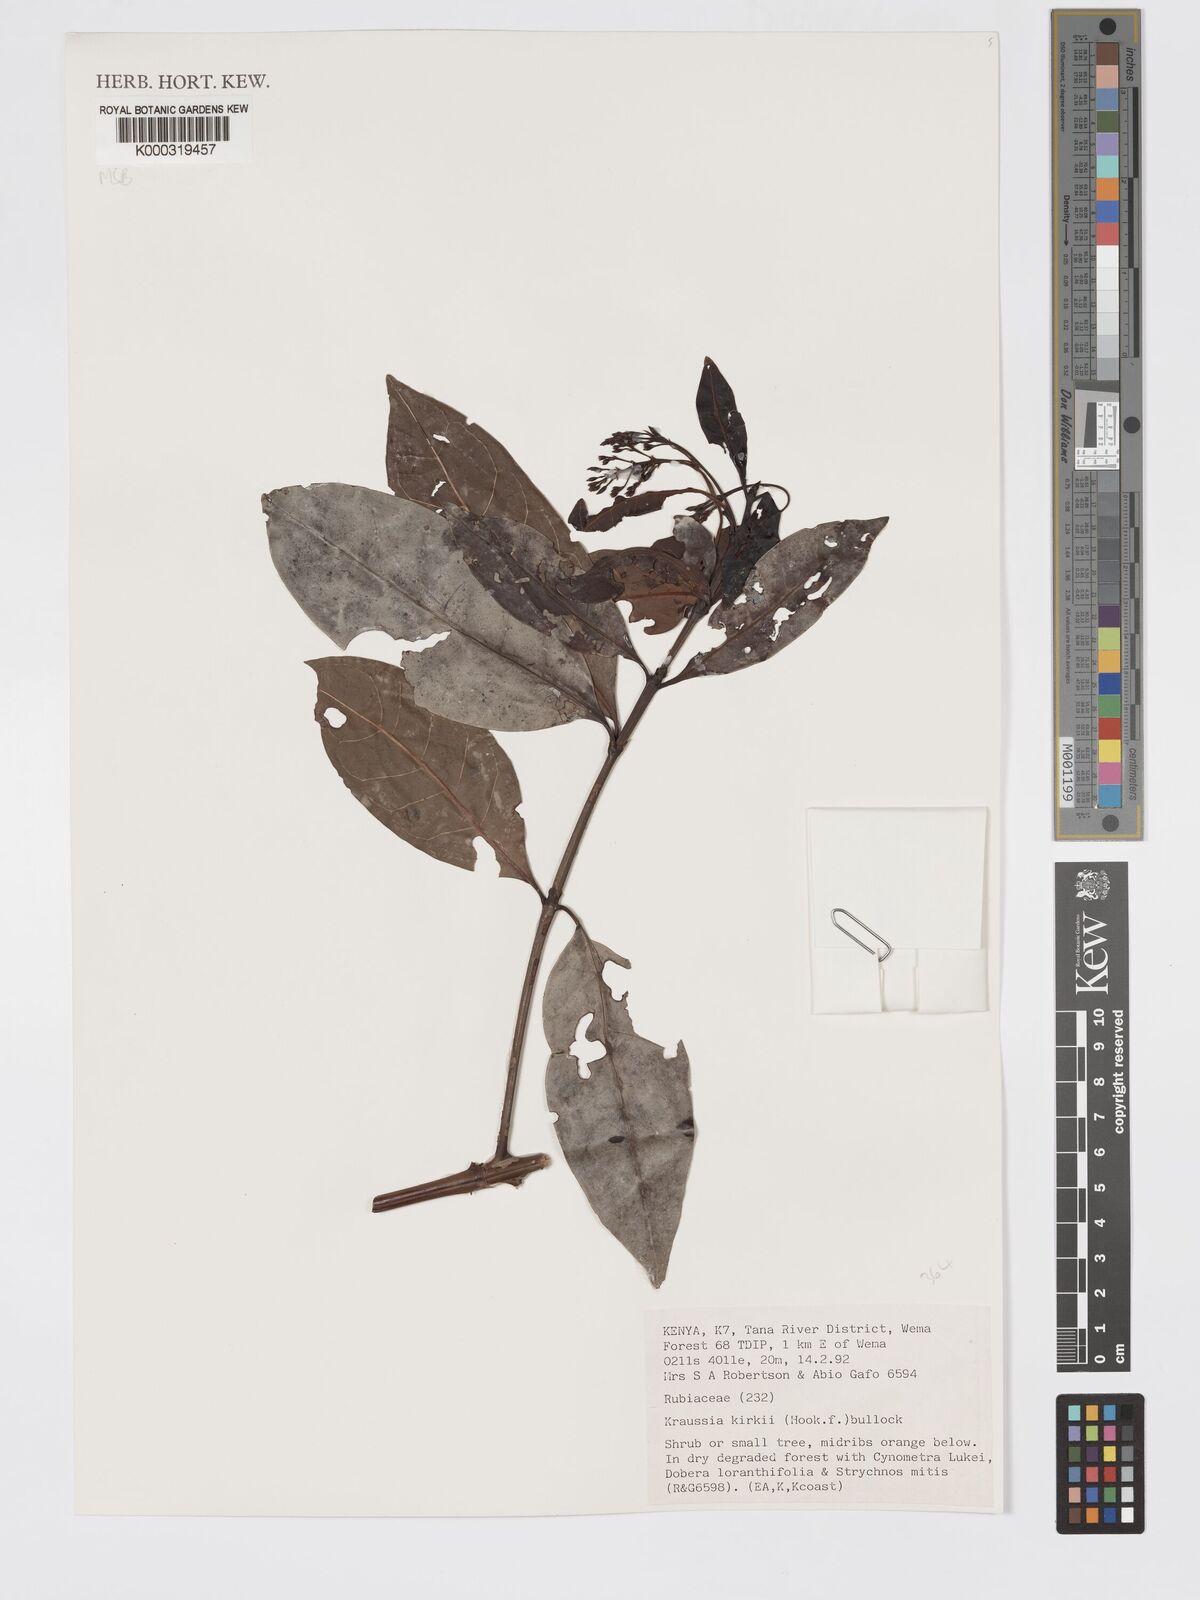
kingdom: Plantae
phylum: Tracheophyta
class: Magnoliopsida
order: Gentianales
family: Rubiaceae
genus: Kraussia
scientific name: Kraussia kirkii
